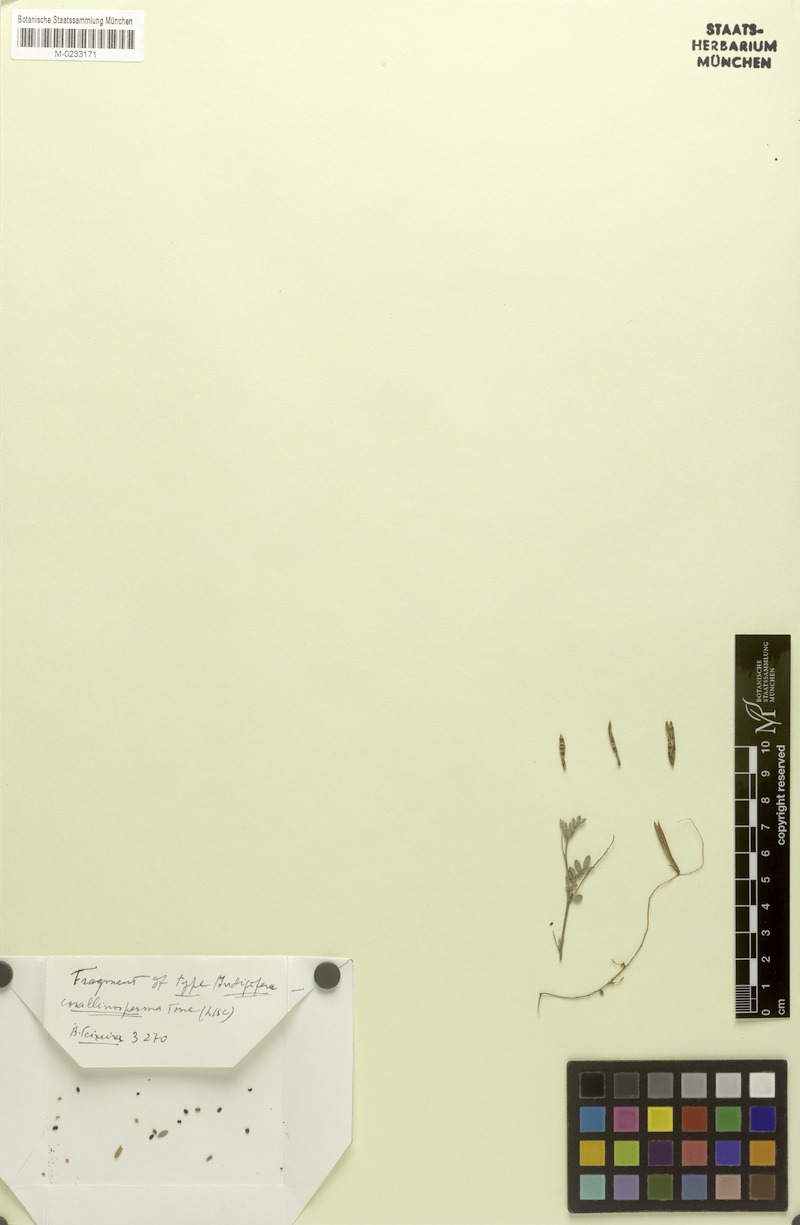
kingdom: Plantae
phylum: Tracheophyta
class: Magnoliopsida
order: Fabales
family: Fabaceae
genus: Indigofera
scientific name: Indigofera corallinosperma
